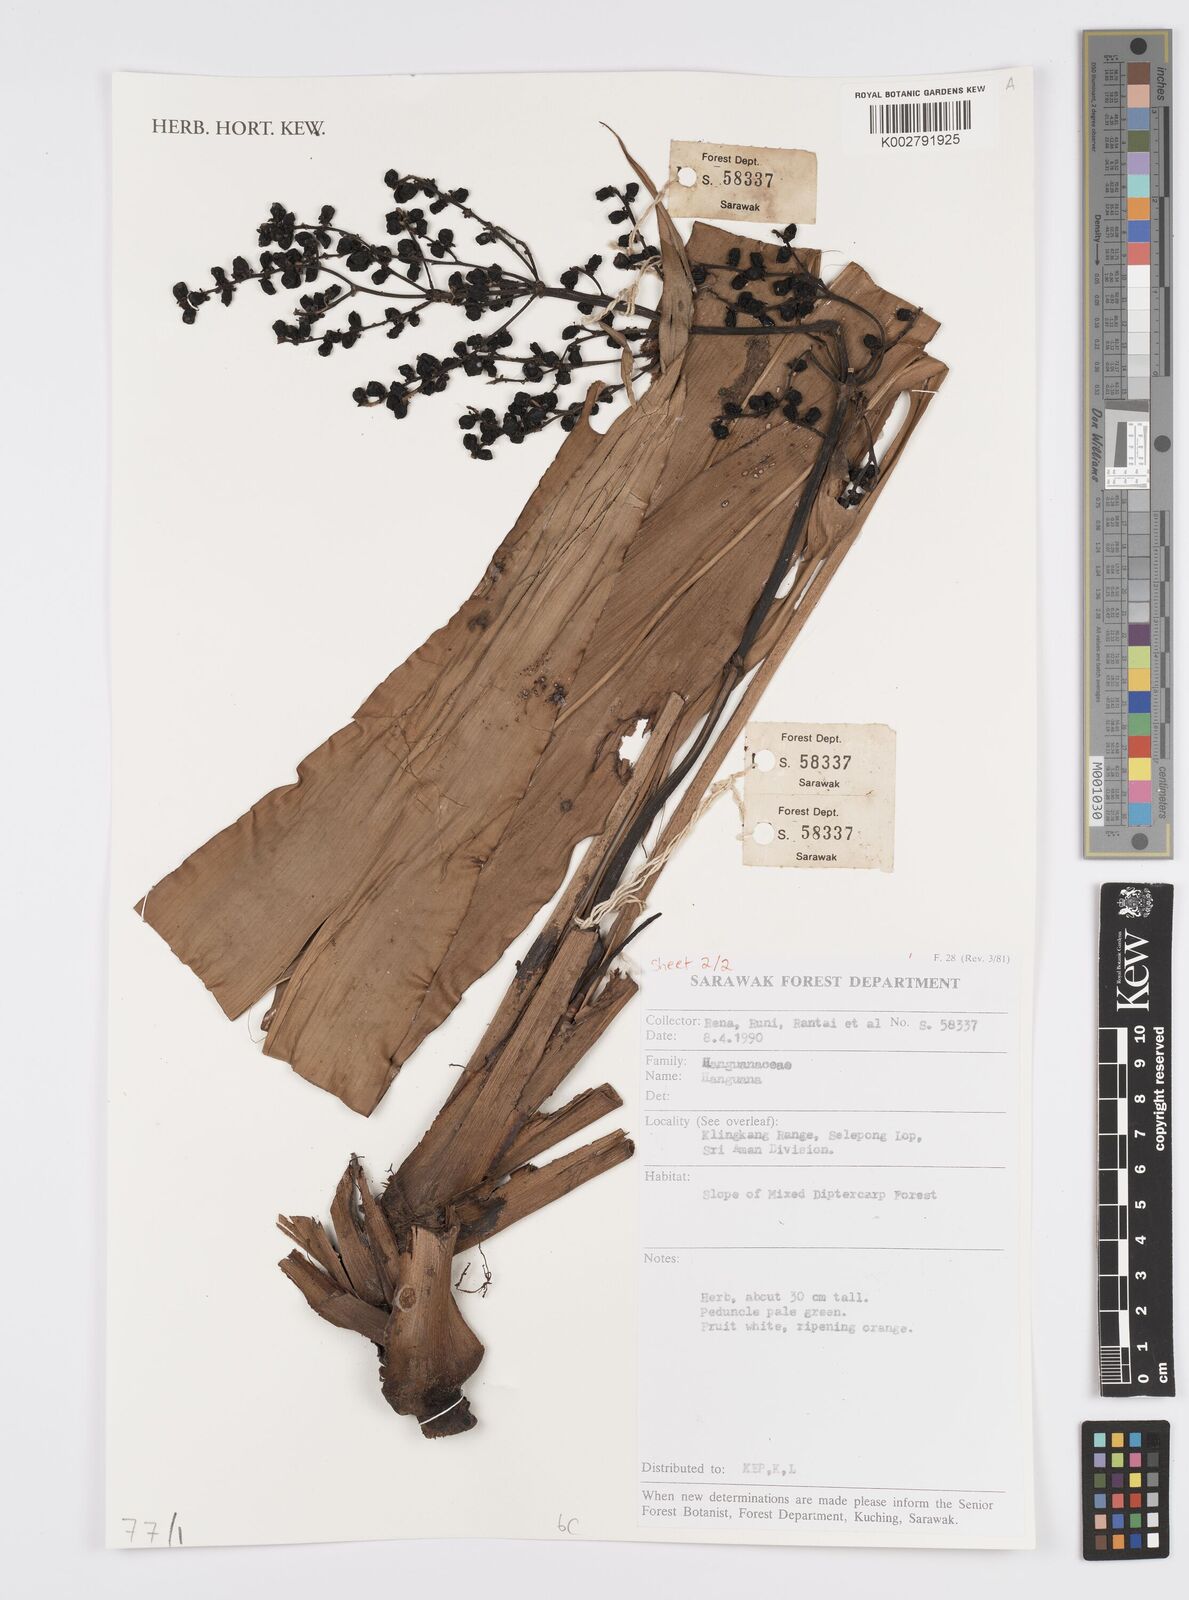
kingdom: Plantae
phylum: Tracheophyta
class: Liliopsida
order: Commelinales
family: Hanguanaceae
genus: Hanguana
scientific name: Hanguana
